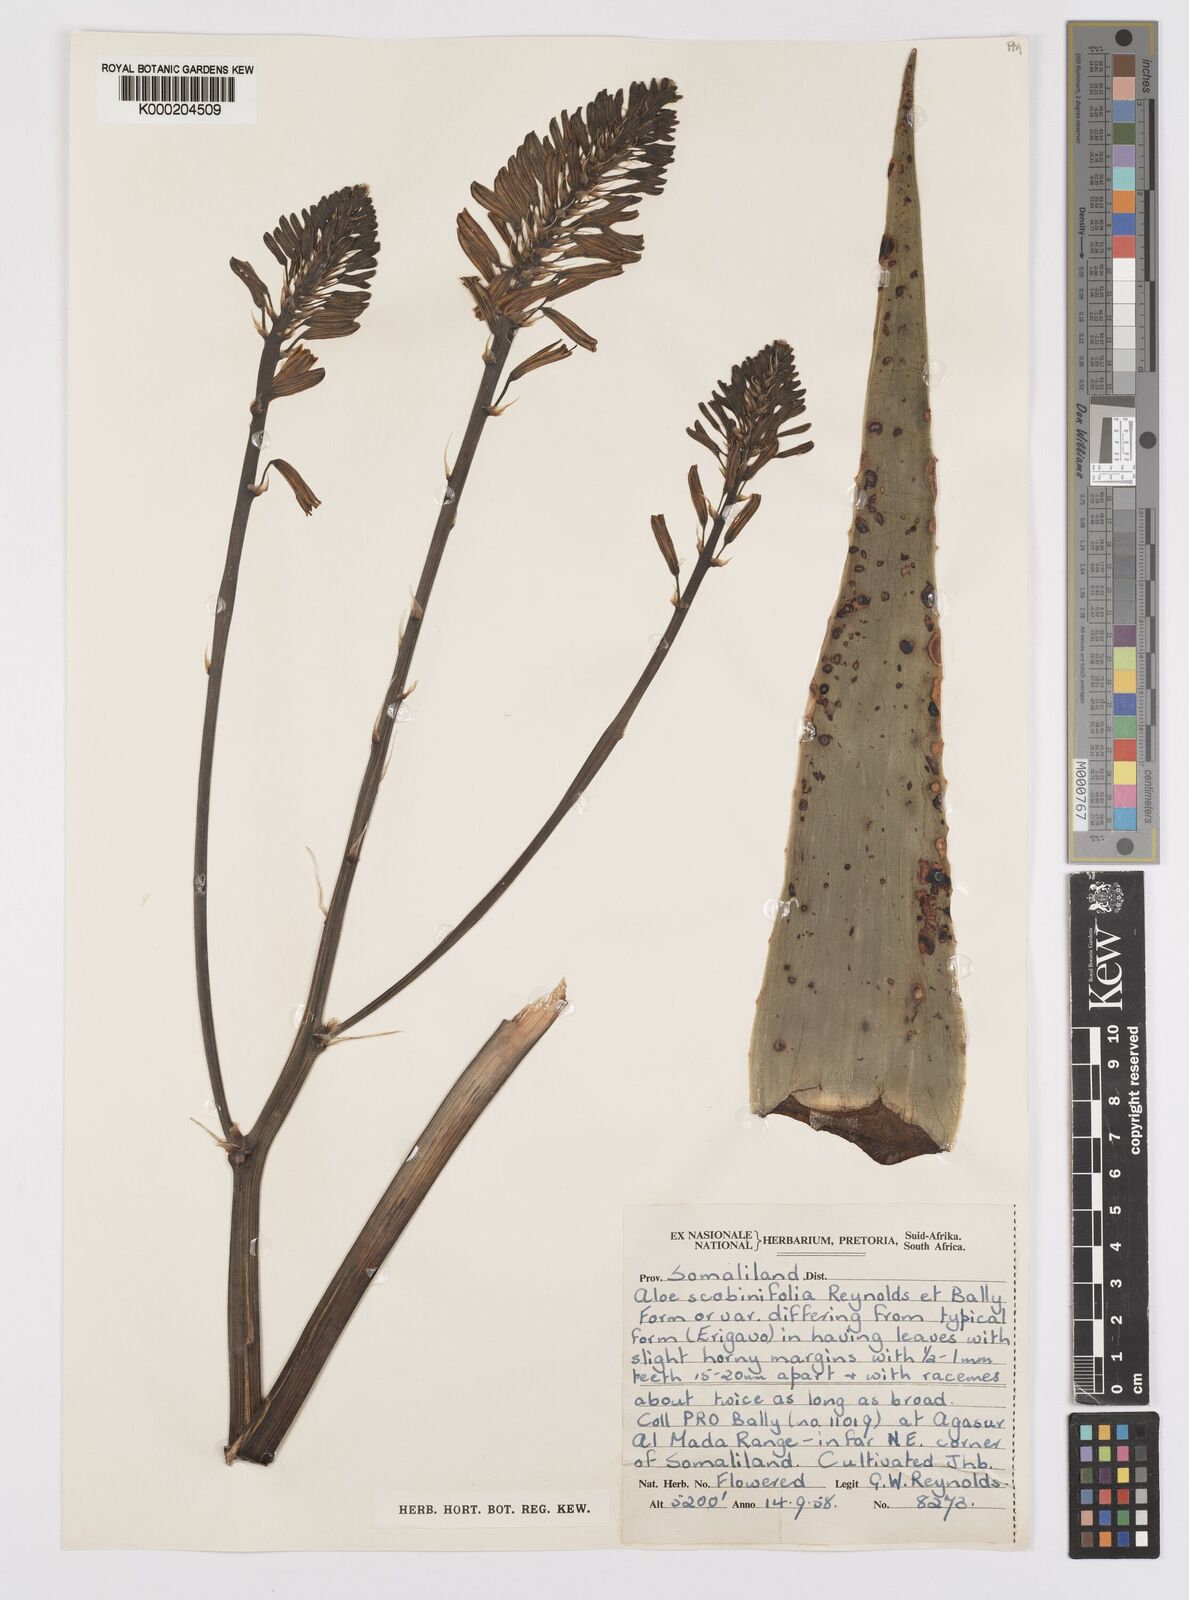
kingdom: Plantae
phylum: Tracheophyta
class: Liliopsida
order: Asparagales
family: Asphodelaceae
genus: Aloe
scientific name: Aloe scobinifolia
